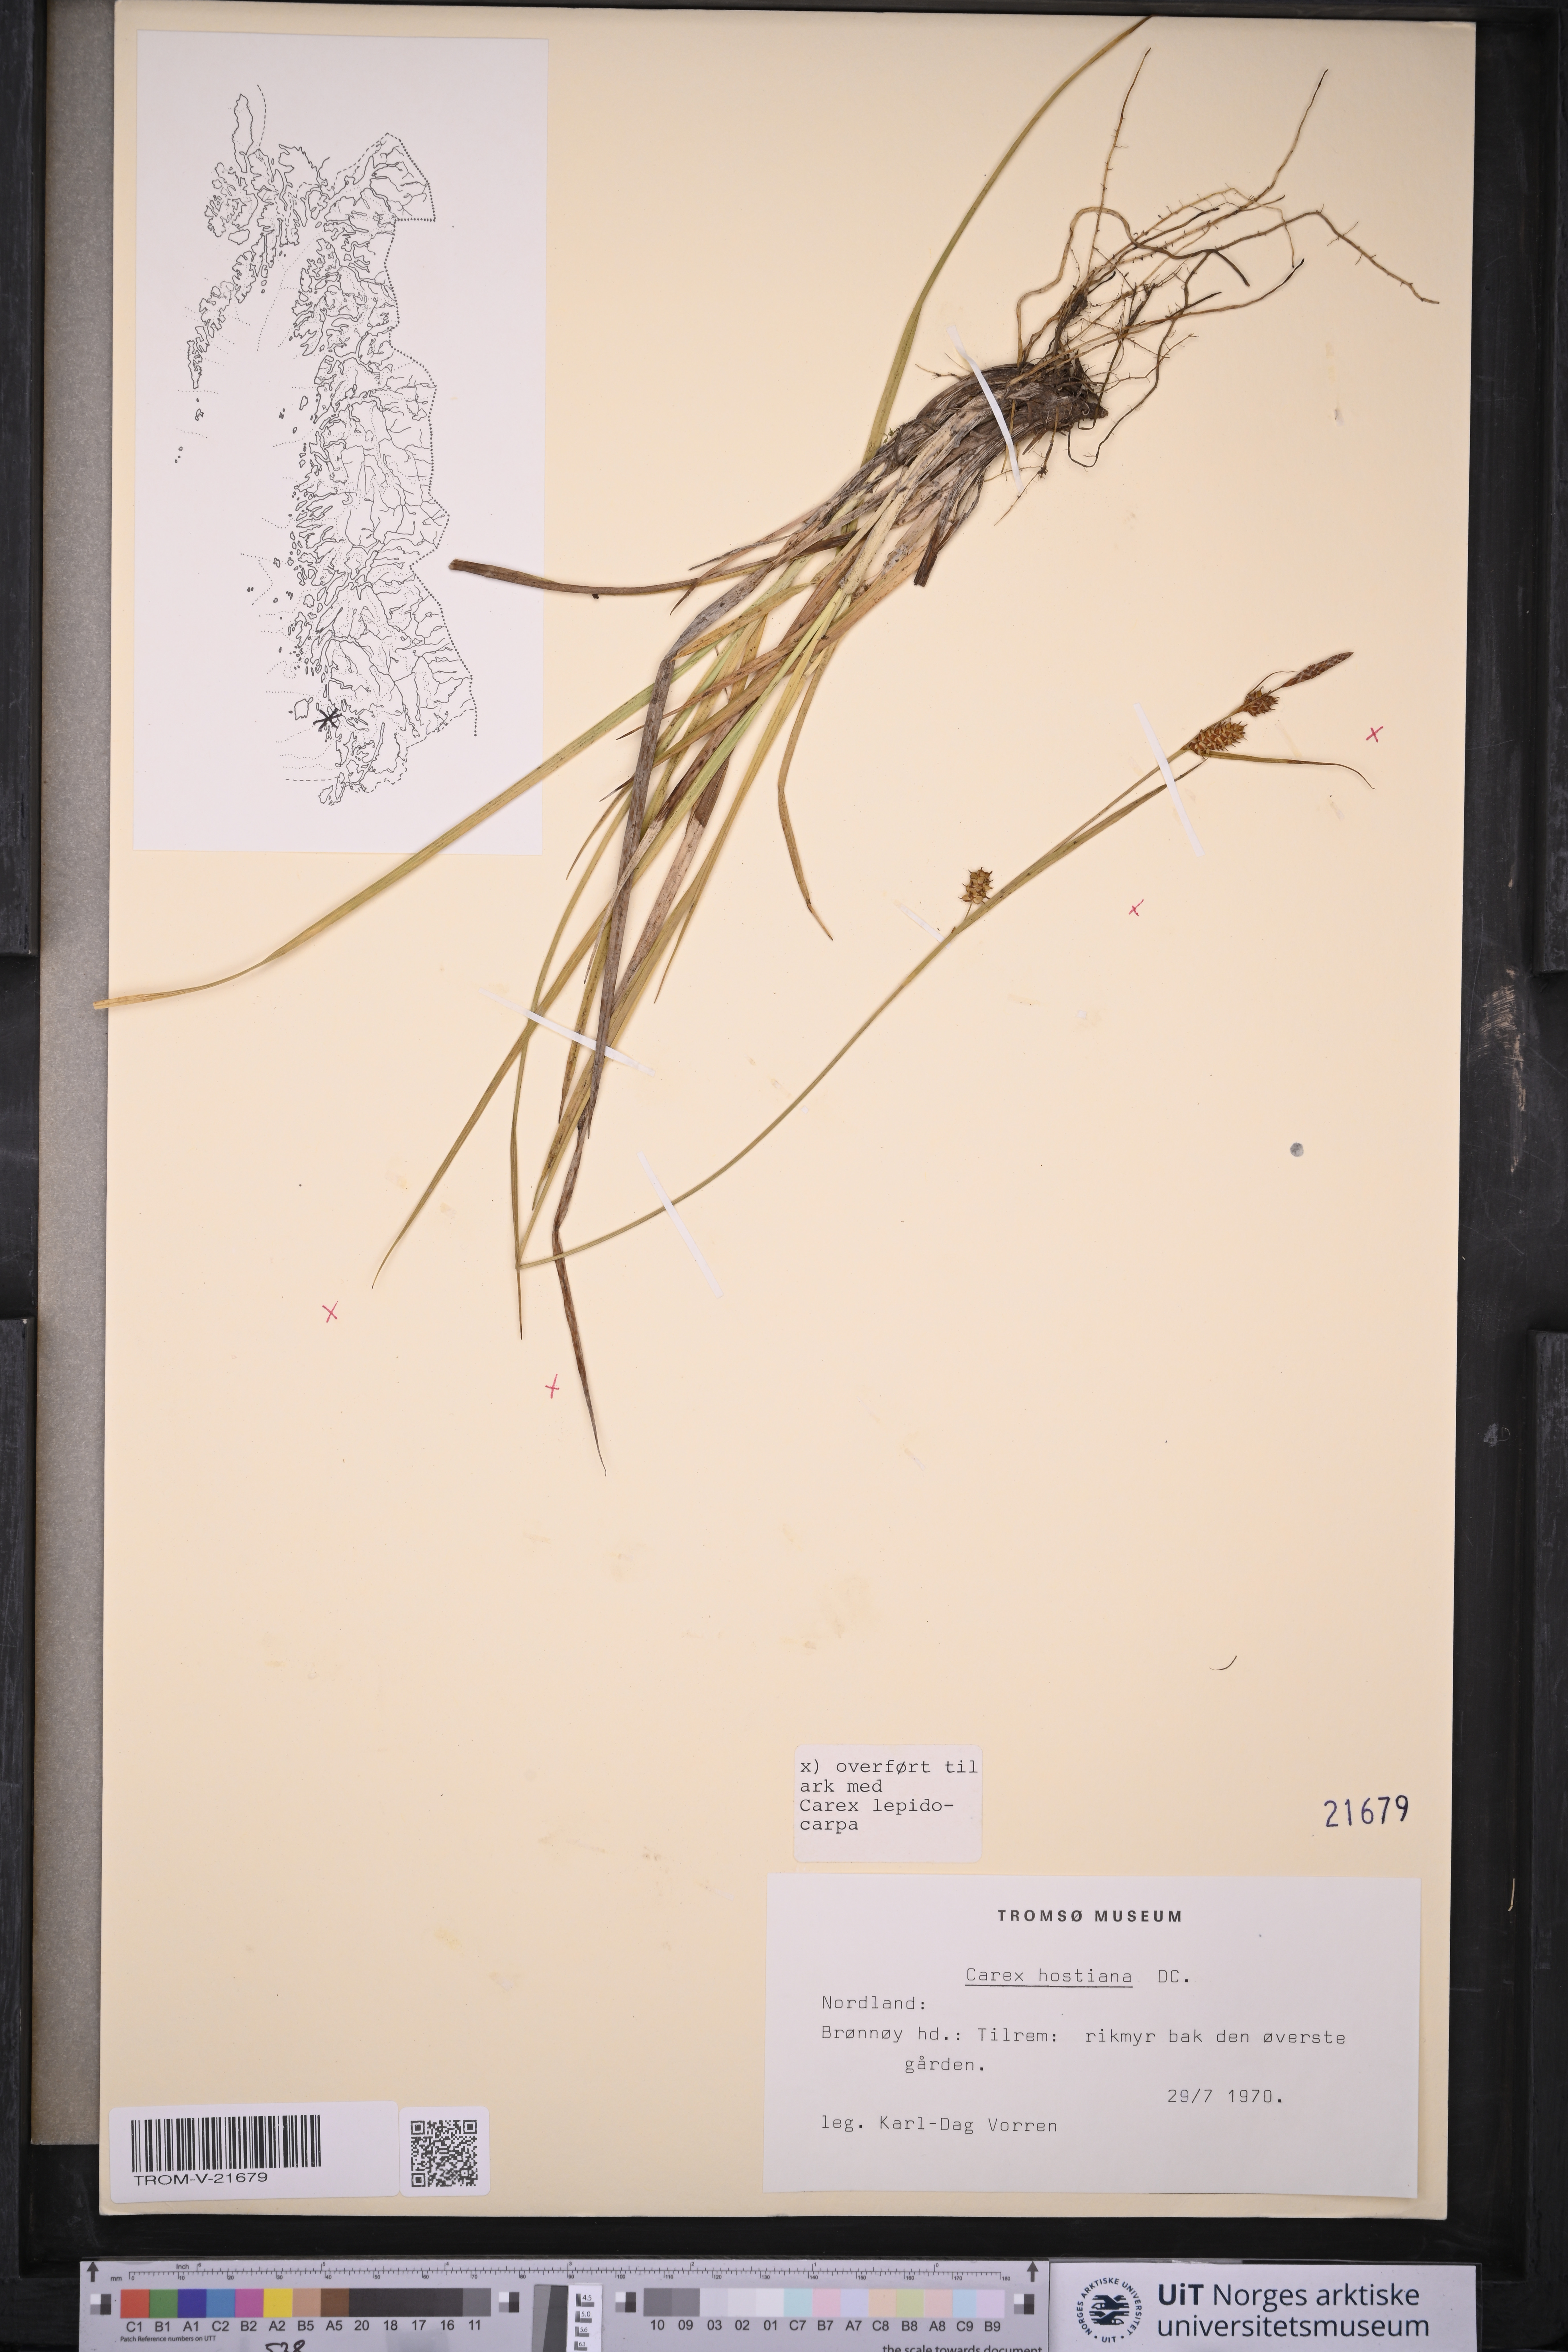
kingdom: Plantae
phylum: Tracheophyta
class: Liliopsida
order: Poales
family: Cyperaceae
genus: Carex
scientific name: Carex hostiana
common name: Tawny sedge
